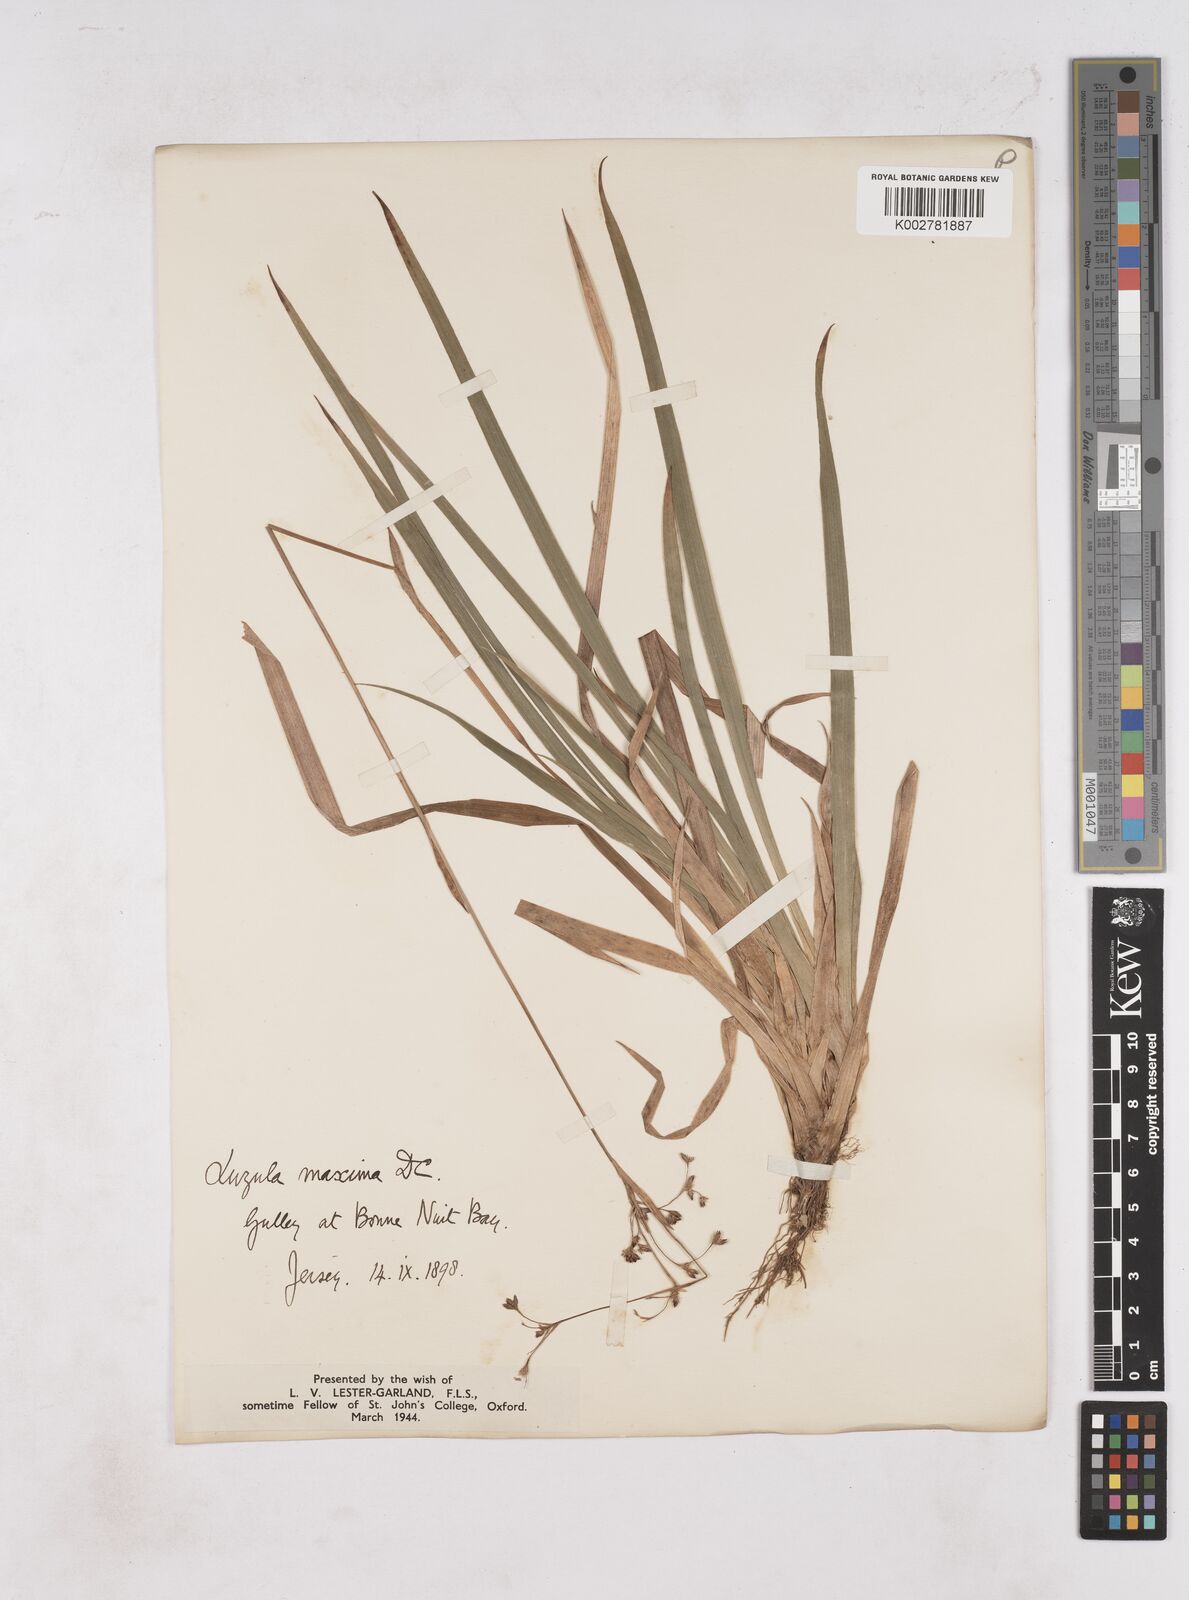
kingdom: Plantae
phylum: Tracheophyta
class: Liliopsida
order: Poales
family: Juncaceae
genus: Luzula
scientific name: Luzula sylvatica
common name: Great wood-rush
